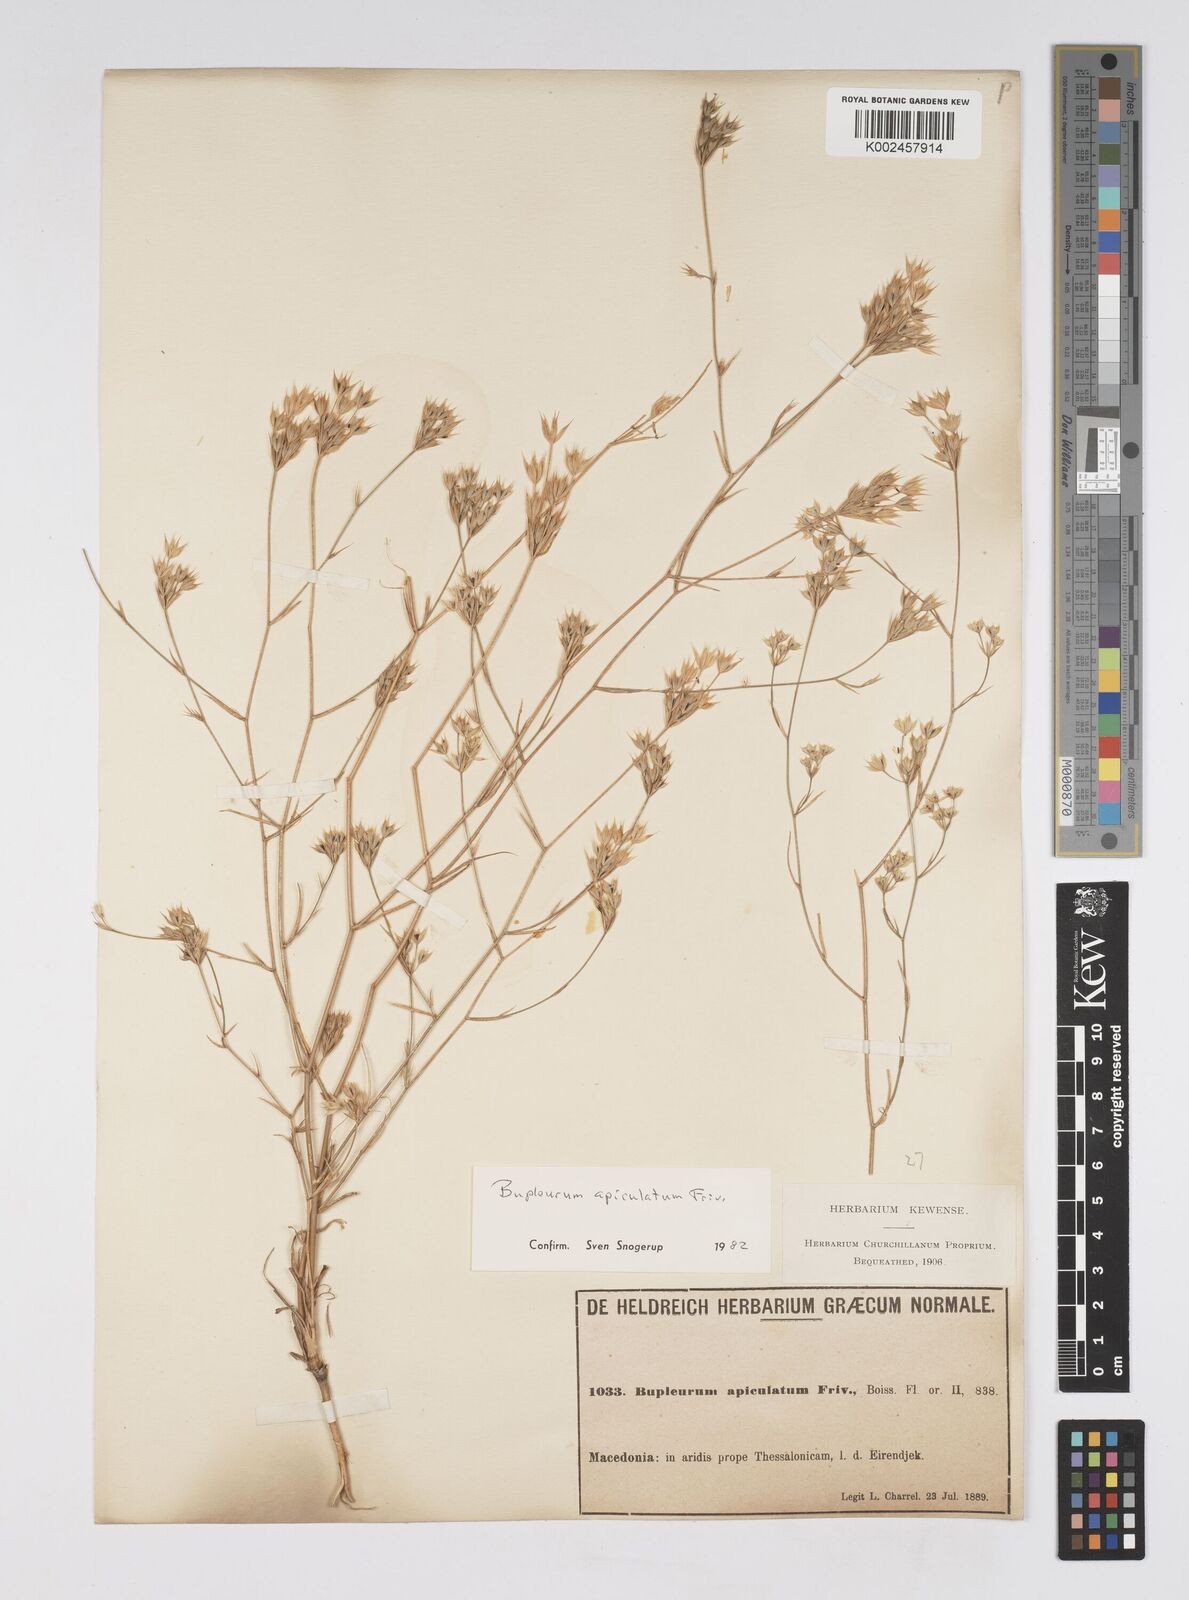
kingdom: Plantae
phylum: Tracheophyta
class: Magnoliopsida
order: Apiales
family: Apiaceae
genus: Bupleurum
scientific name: Bupleurum apiculatum
